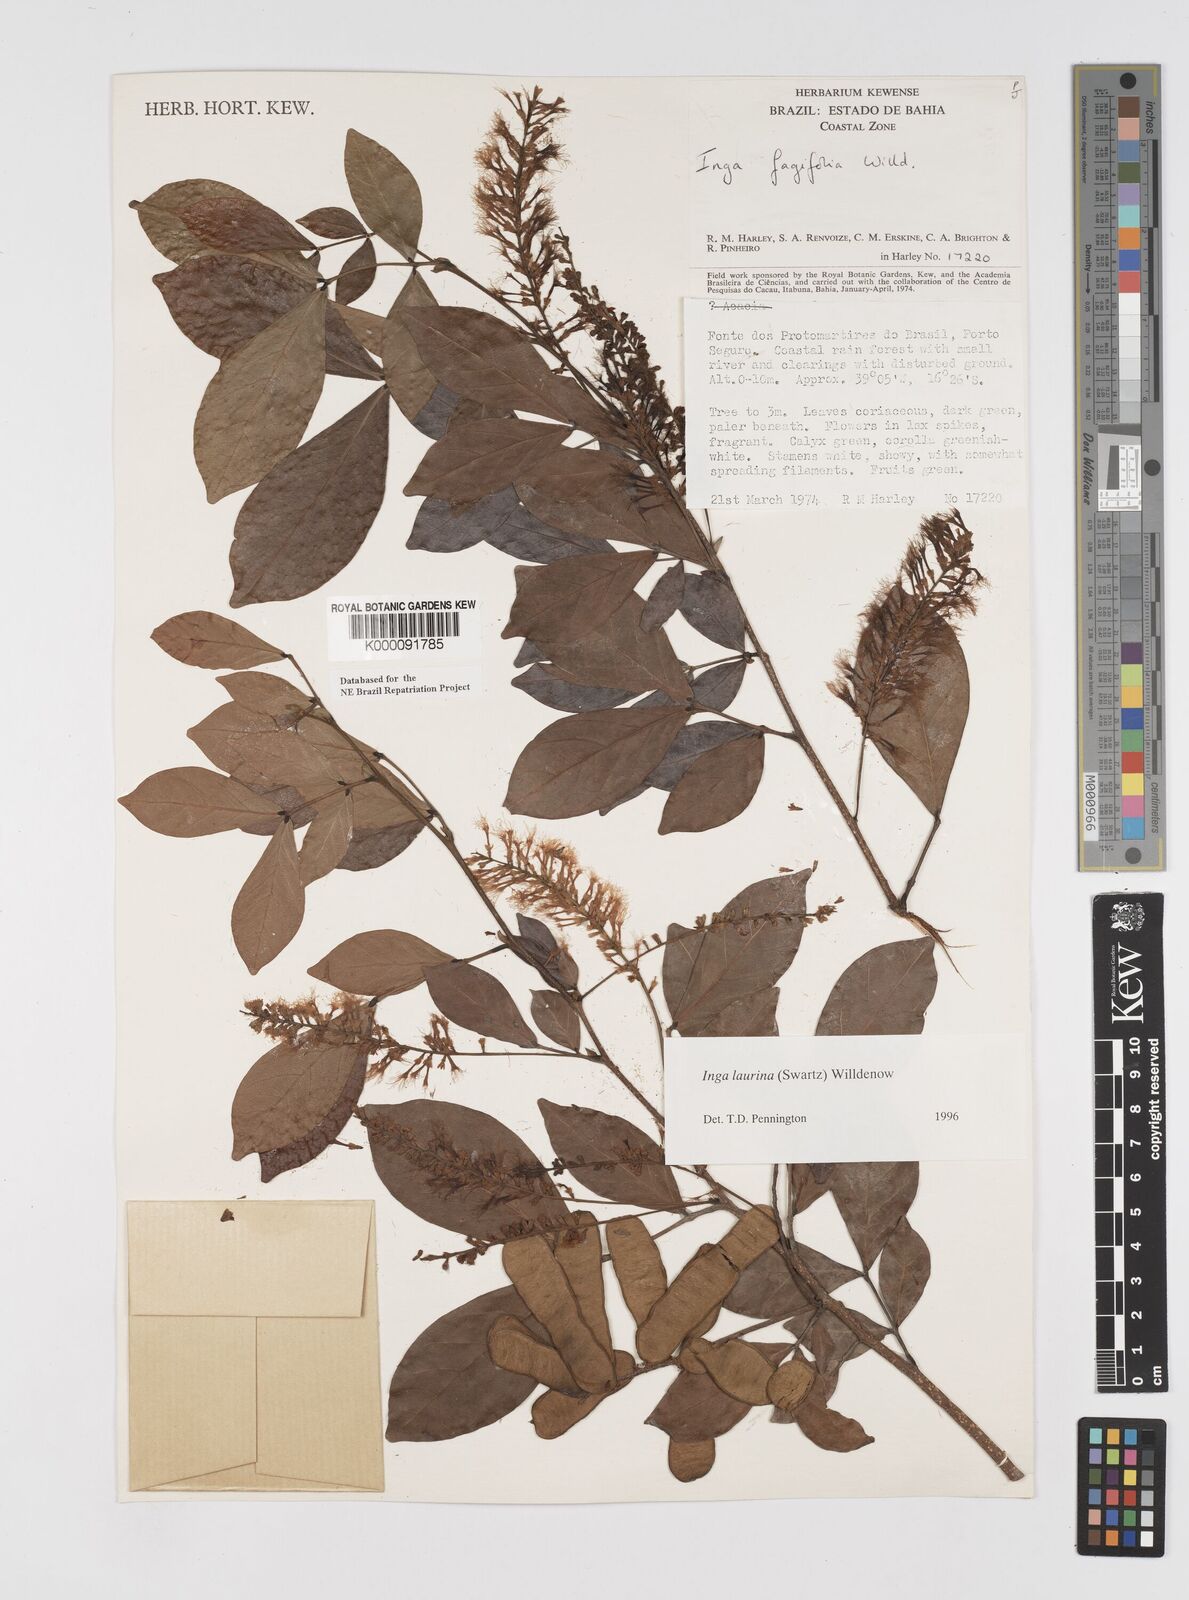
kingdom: Plantae
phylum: Tracheophyta
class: Magnoliopsida
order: Fabales
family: Fabaceae
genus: Inga
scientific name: Inga laurina
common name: Red wood
